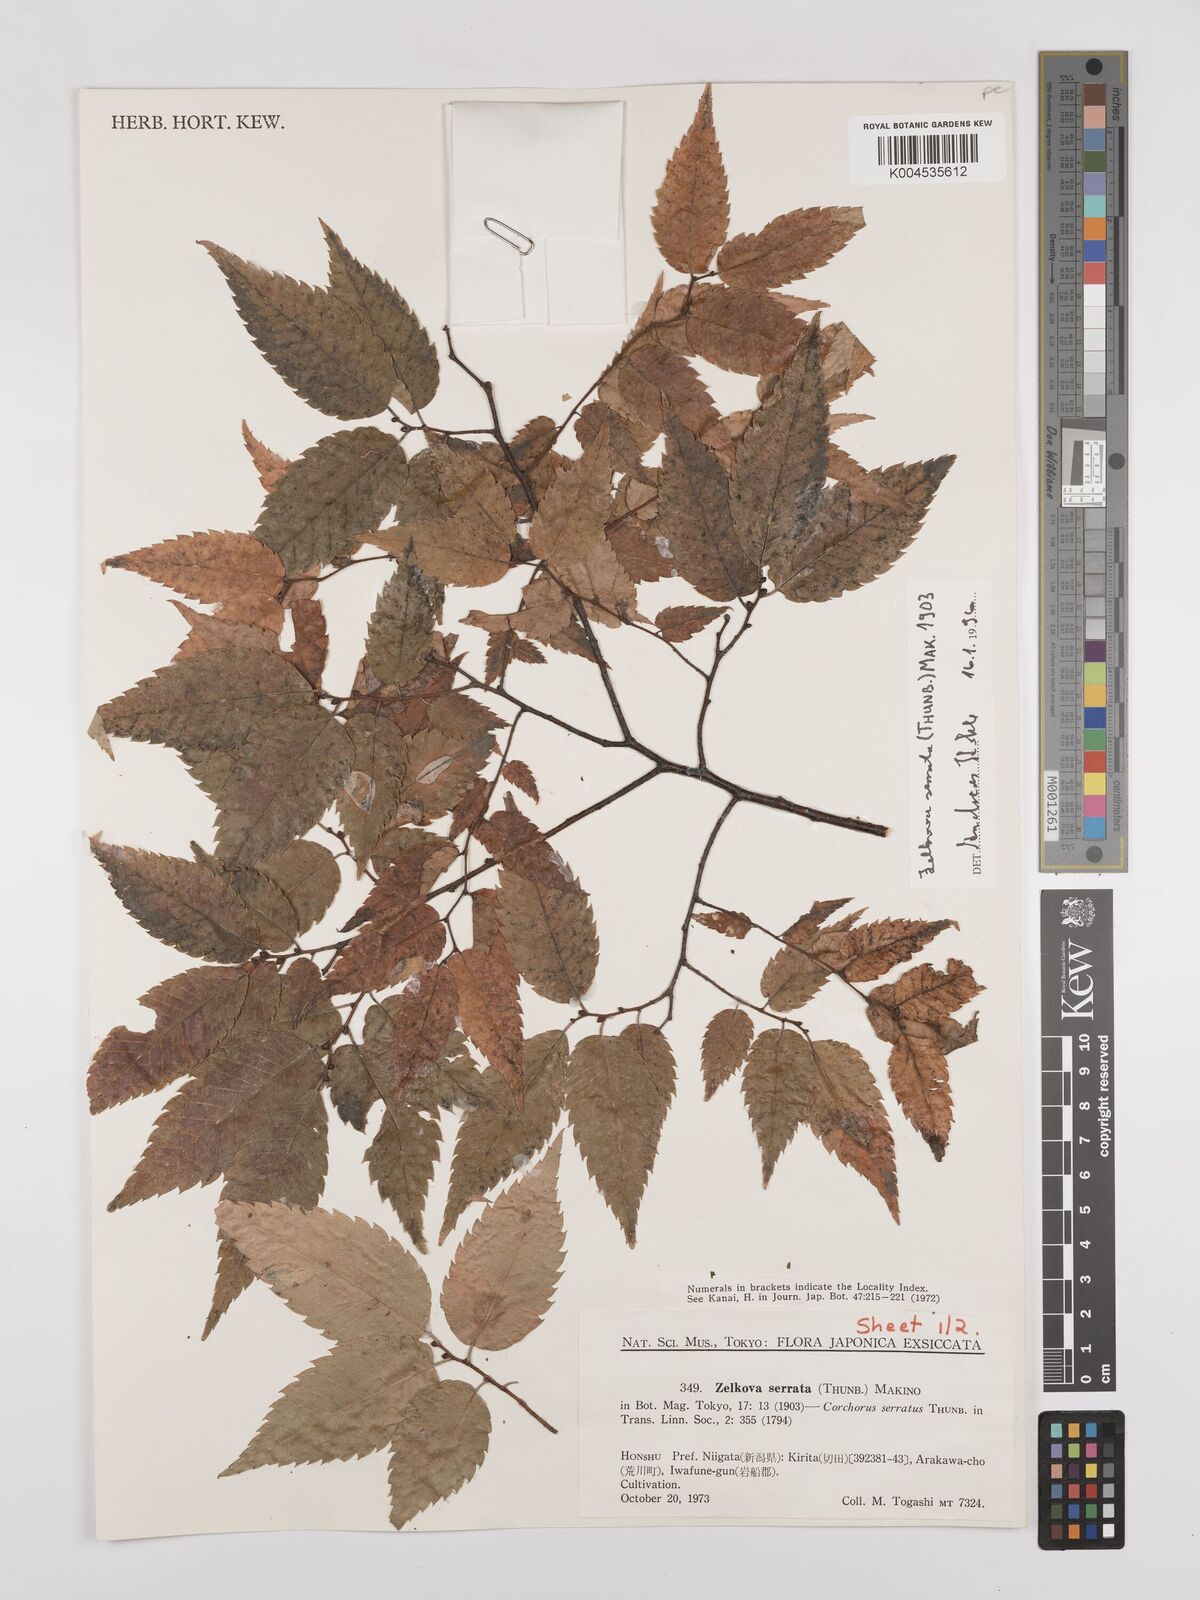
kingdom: Plantae
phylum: Tracheophyta
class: Magnoliopsida
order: Rosales
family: Ulmaceae
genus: Zelkova
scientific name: Zelkova serrata
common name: Japanese zelkova
